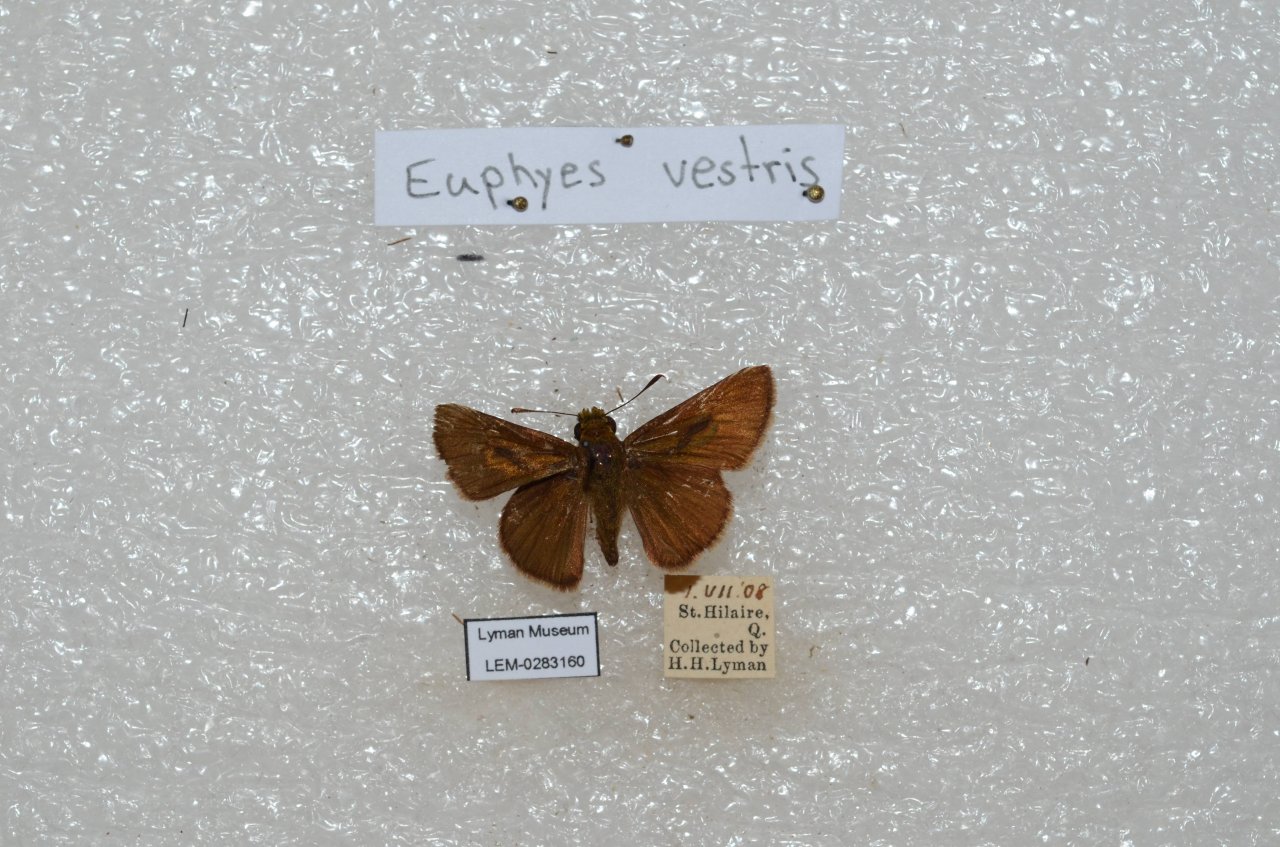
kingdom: Animalia
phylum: Arthropoda
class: Insecta
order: Lepidoptera
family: Hesperiidae
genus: Euphyes
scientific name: Euphyes vestris
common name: Dun Skipper
